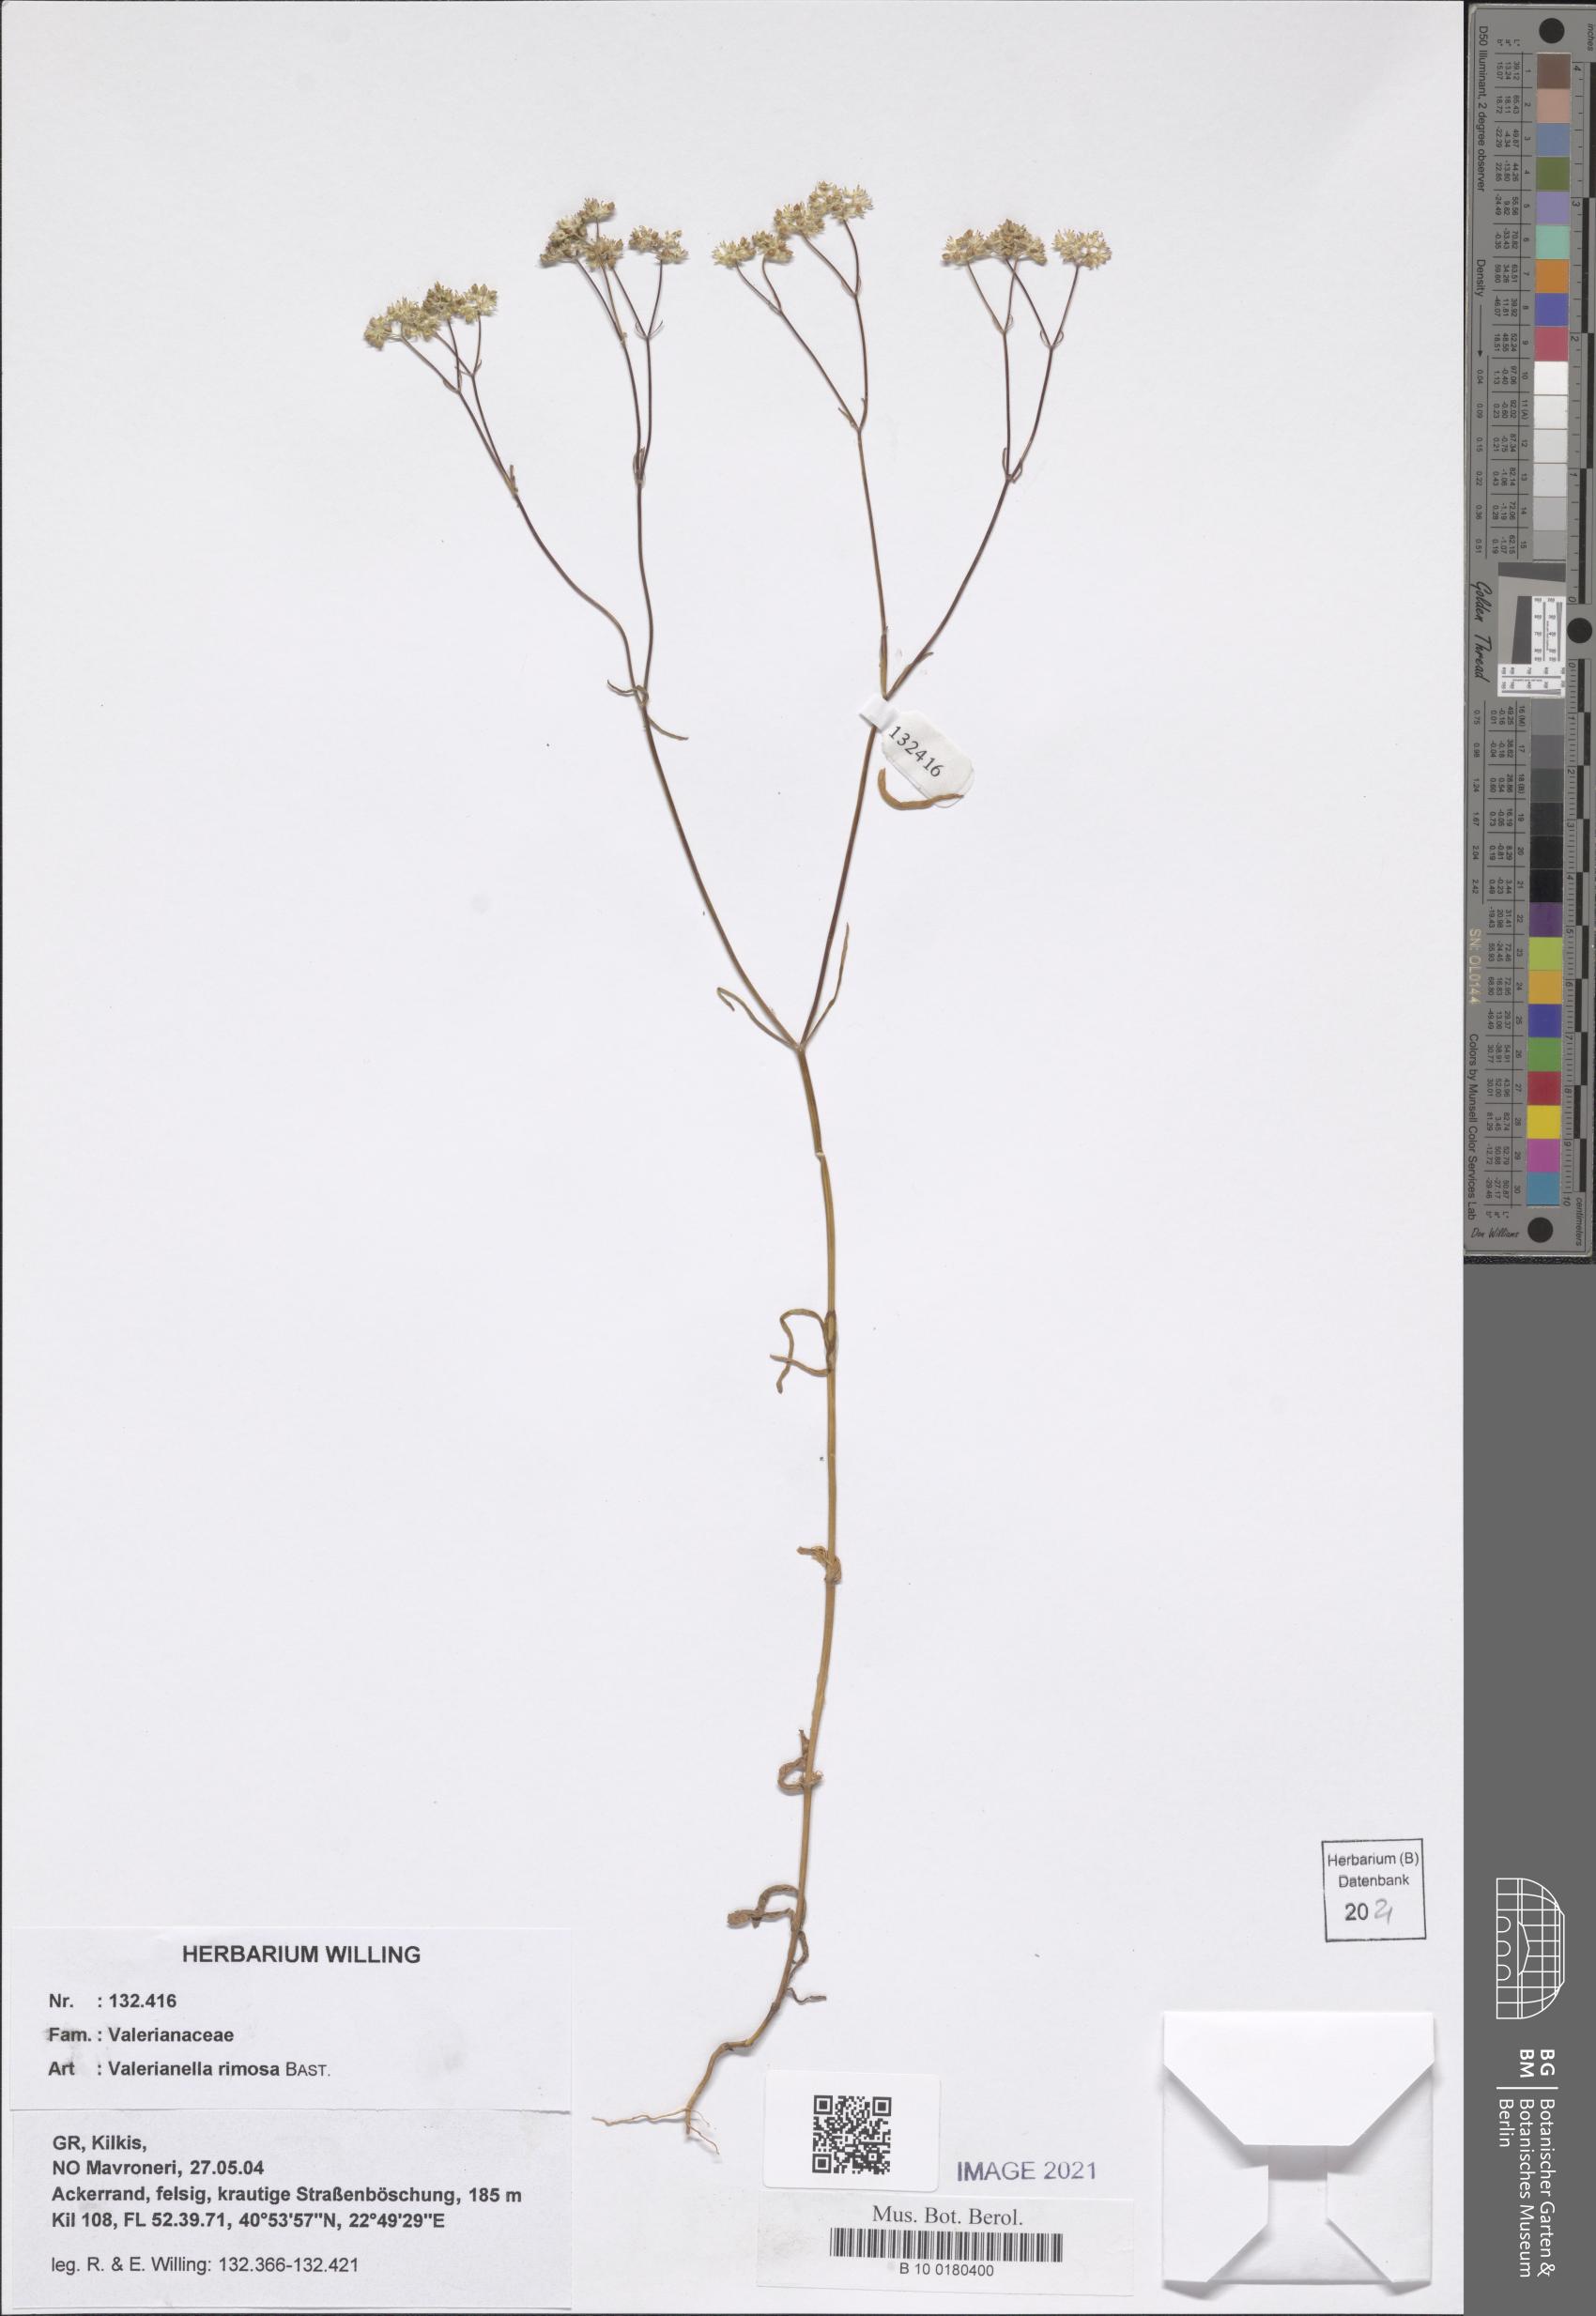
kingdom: Plantae
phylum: Tracheophyta
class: Magnoliopsida
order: Dipsacales
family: Caprifoliaceae
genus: Valerianella
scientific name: Valerianella rimosa
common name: Broad-fruited cornsalad
